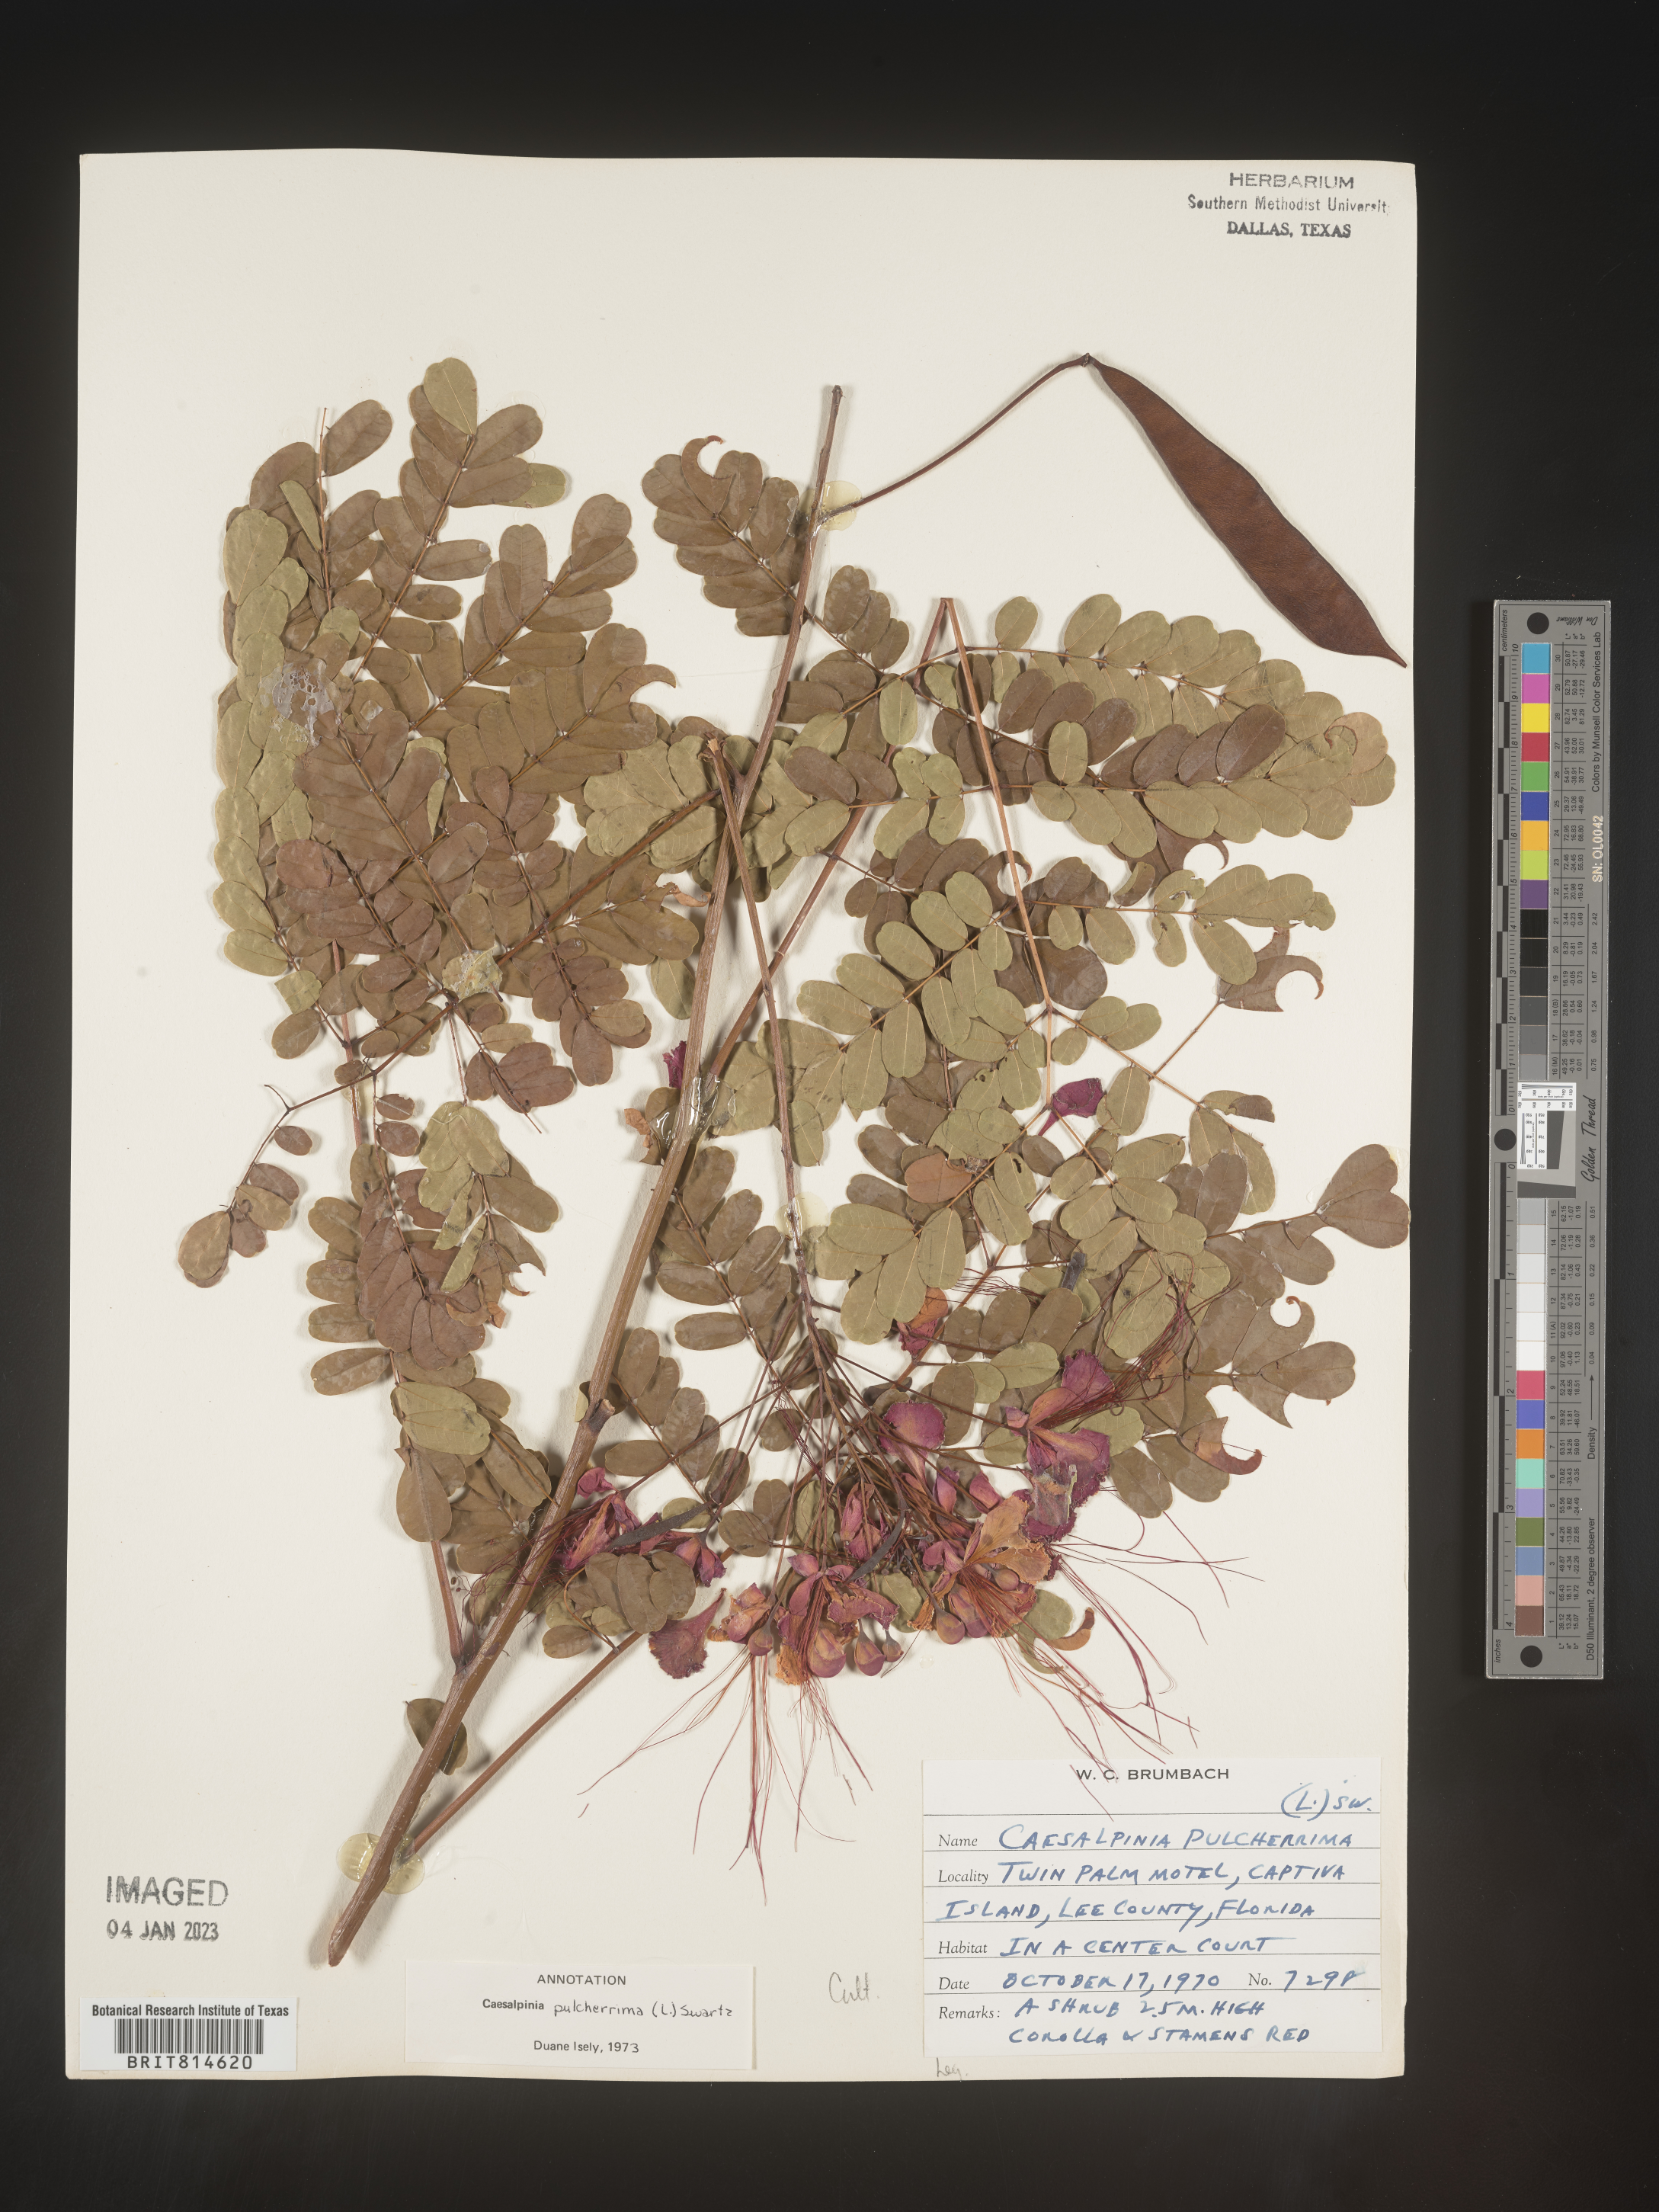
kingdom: Plantae
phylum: Tracheophyta
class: Magnoliopsida
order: Fabales
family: Fabaceae
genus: Caesalpinia
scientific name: Caesalpinia
